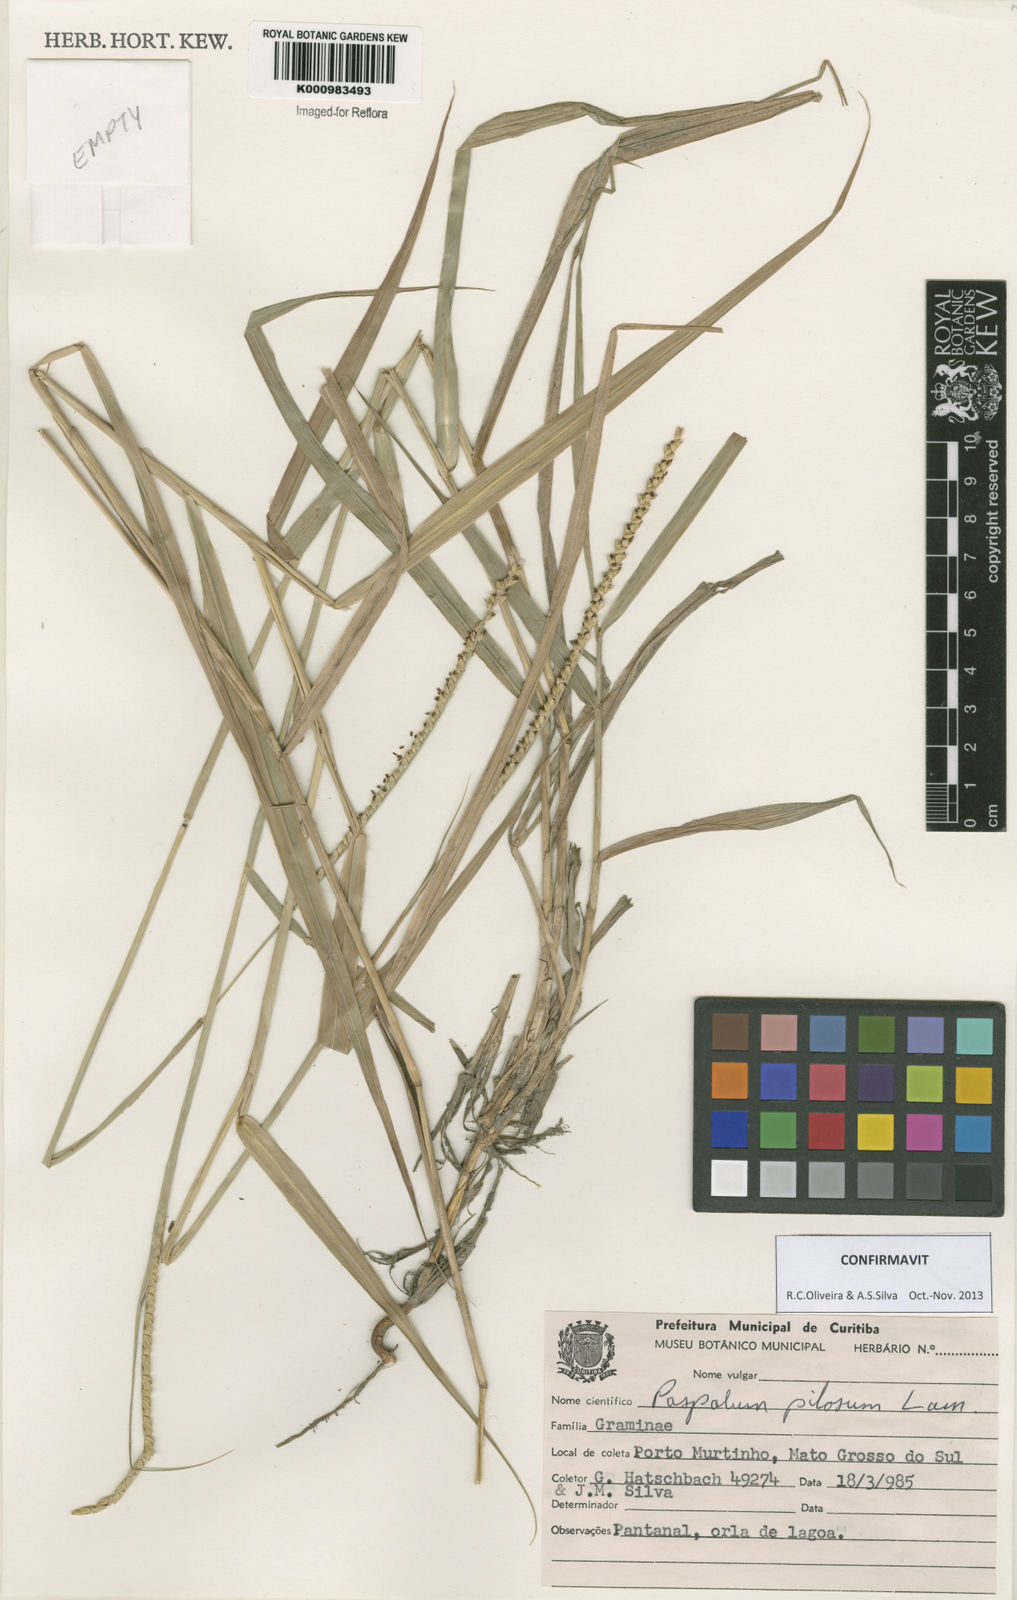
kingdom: Plantae
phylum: Tracheophyta
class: Liliopsida
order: Poales
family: Poaceae
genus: Paspalum
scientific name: Paspalum pilosum
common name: Crowngrass
